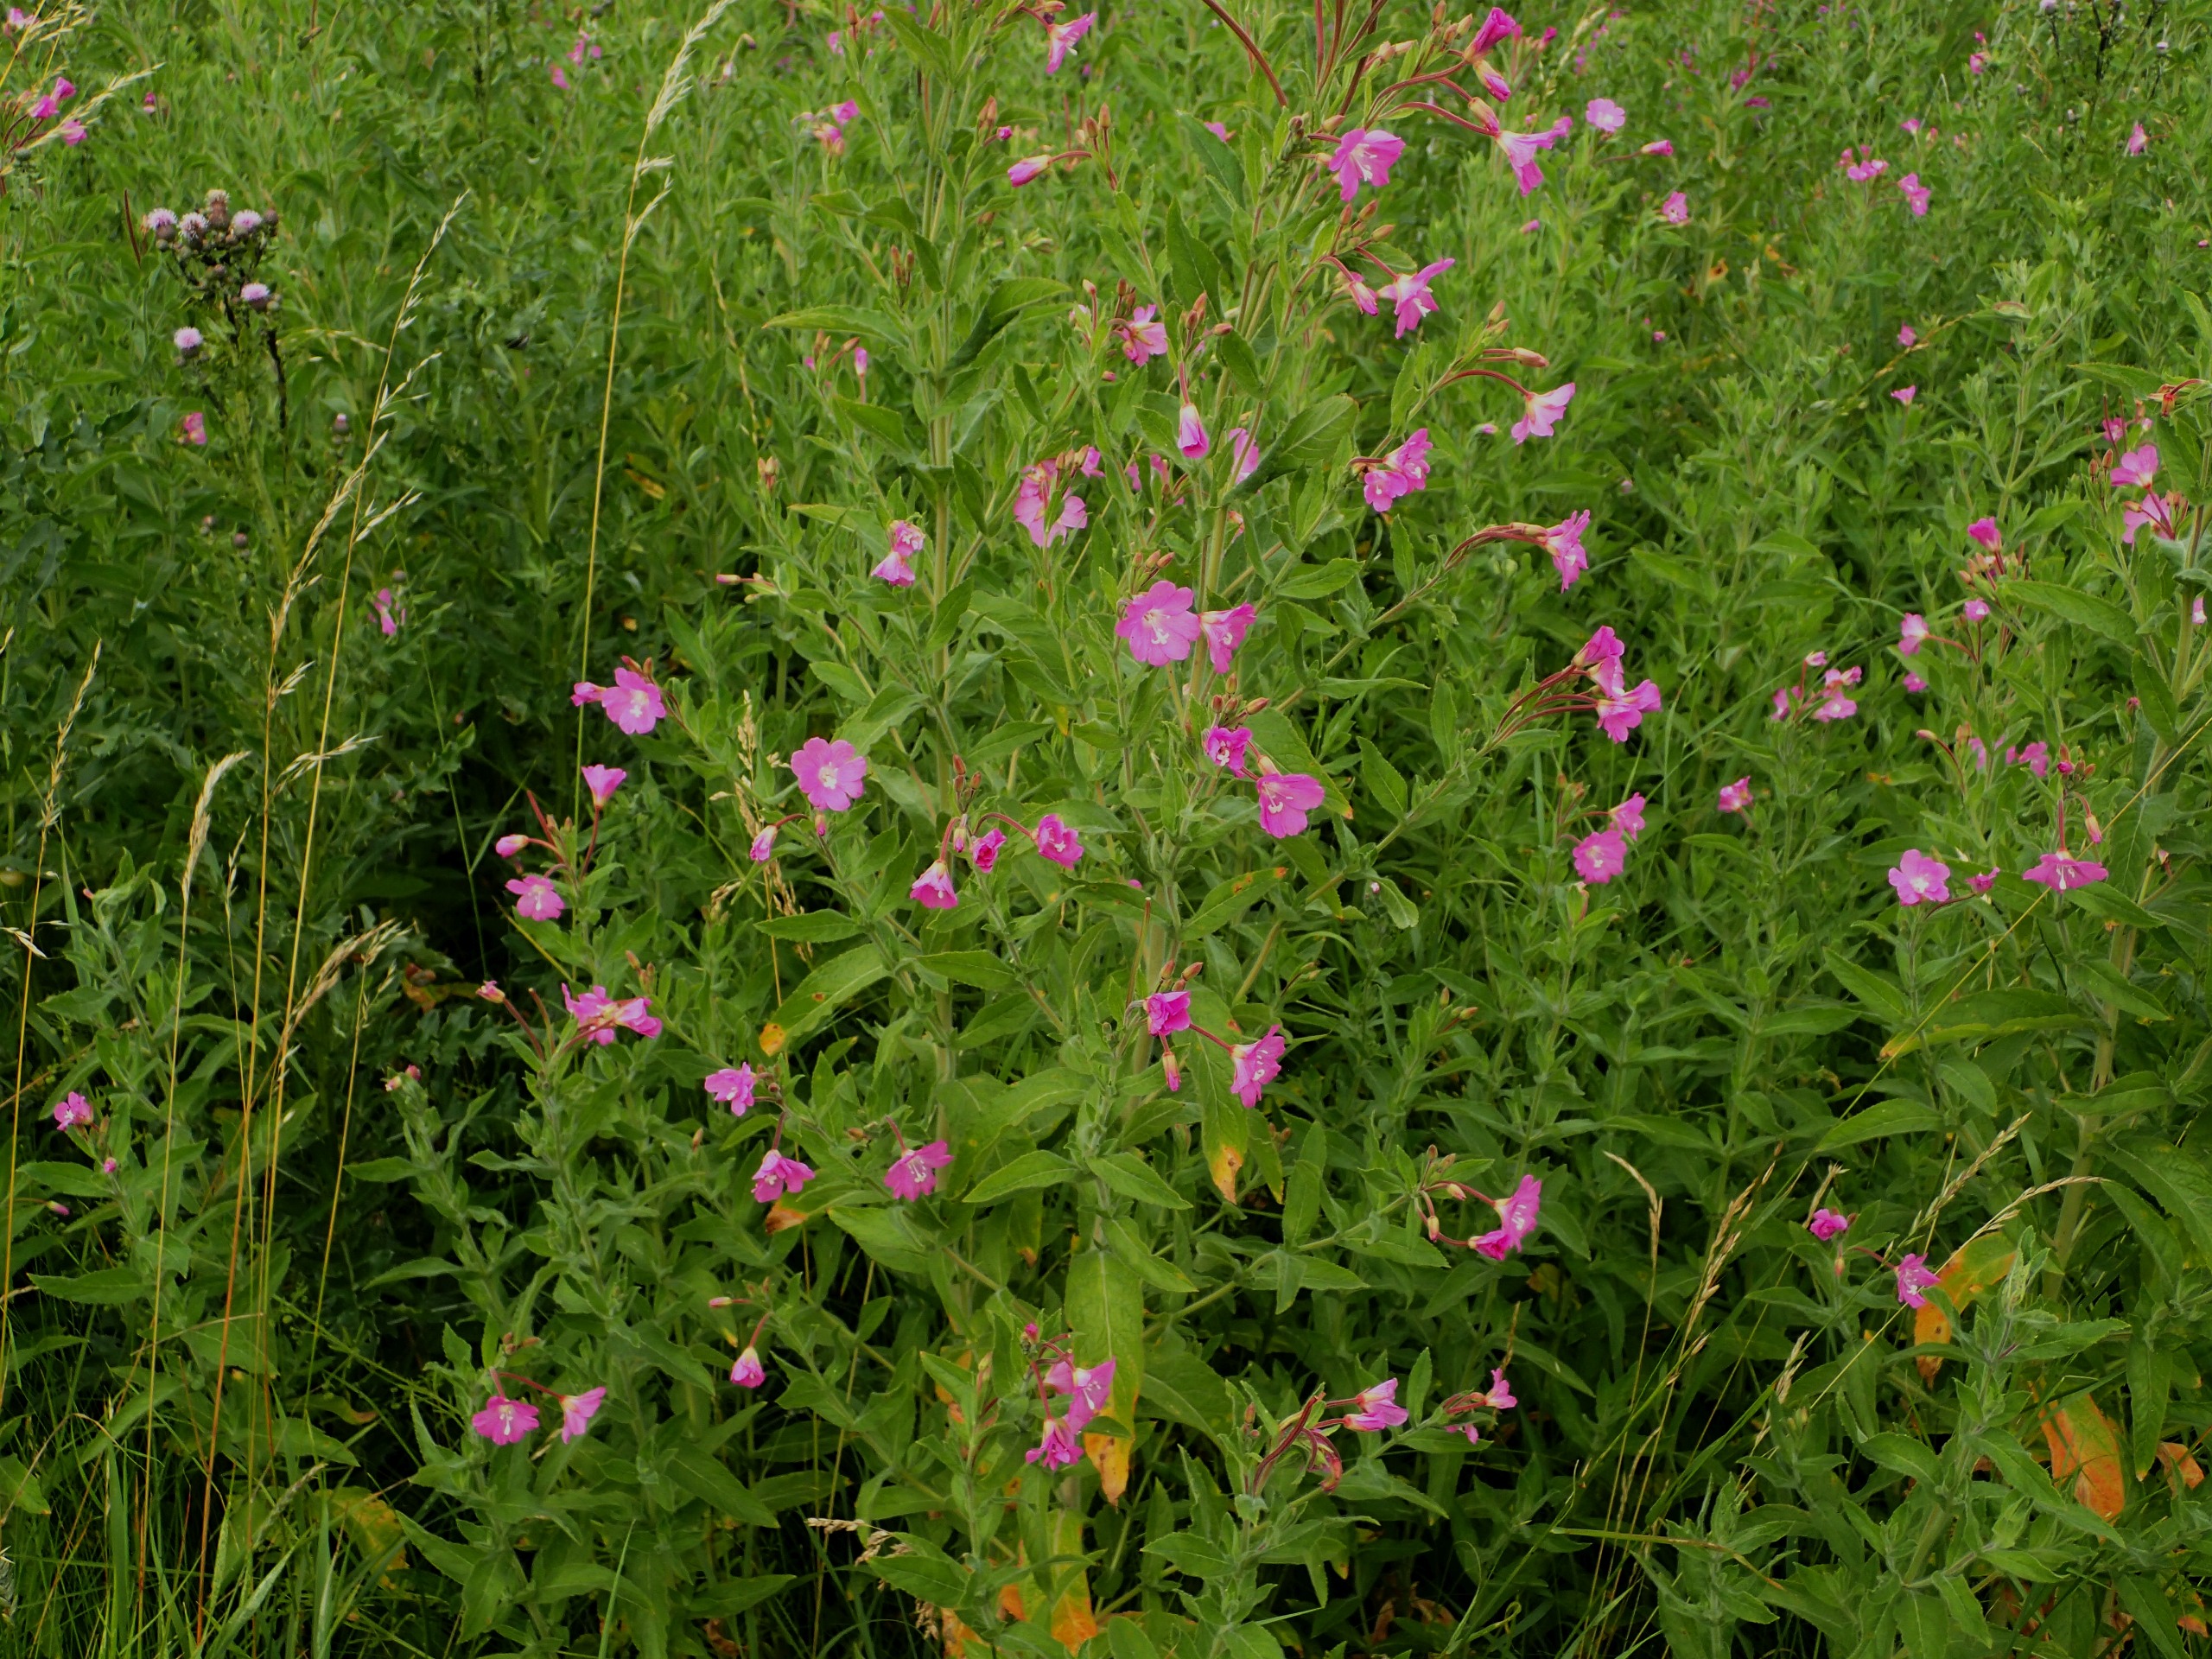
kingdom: Plantae
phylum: Tracheophyta
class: Magnoliopsida
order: Myrtales
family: Onagraceae
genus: Epilobium
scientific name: Epilobium hirsutum
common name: Lådden dueurt
